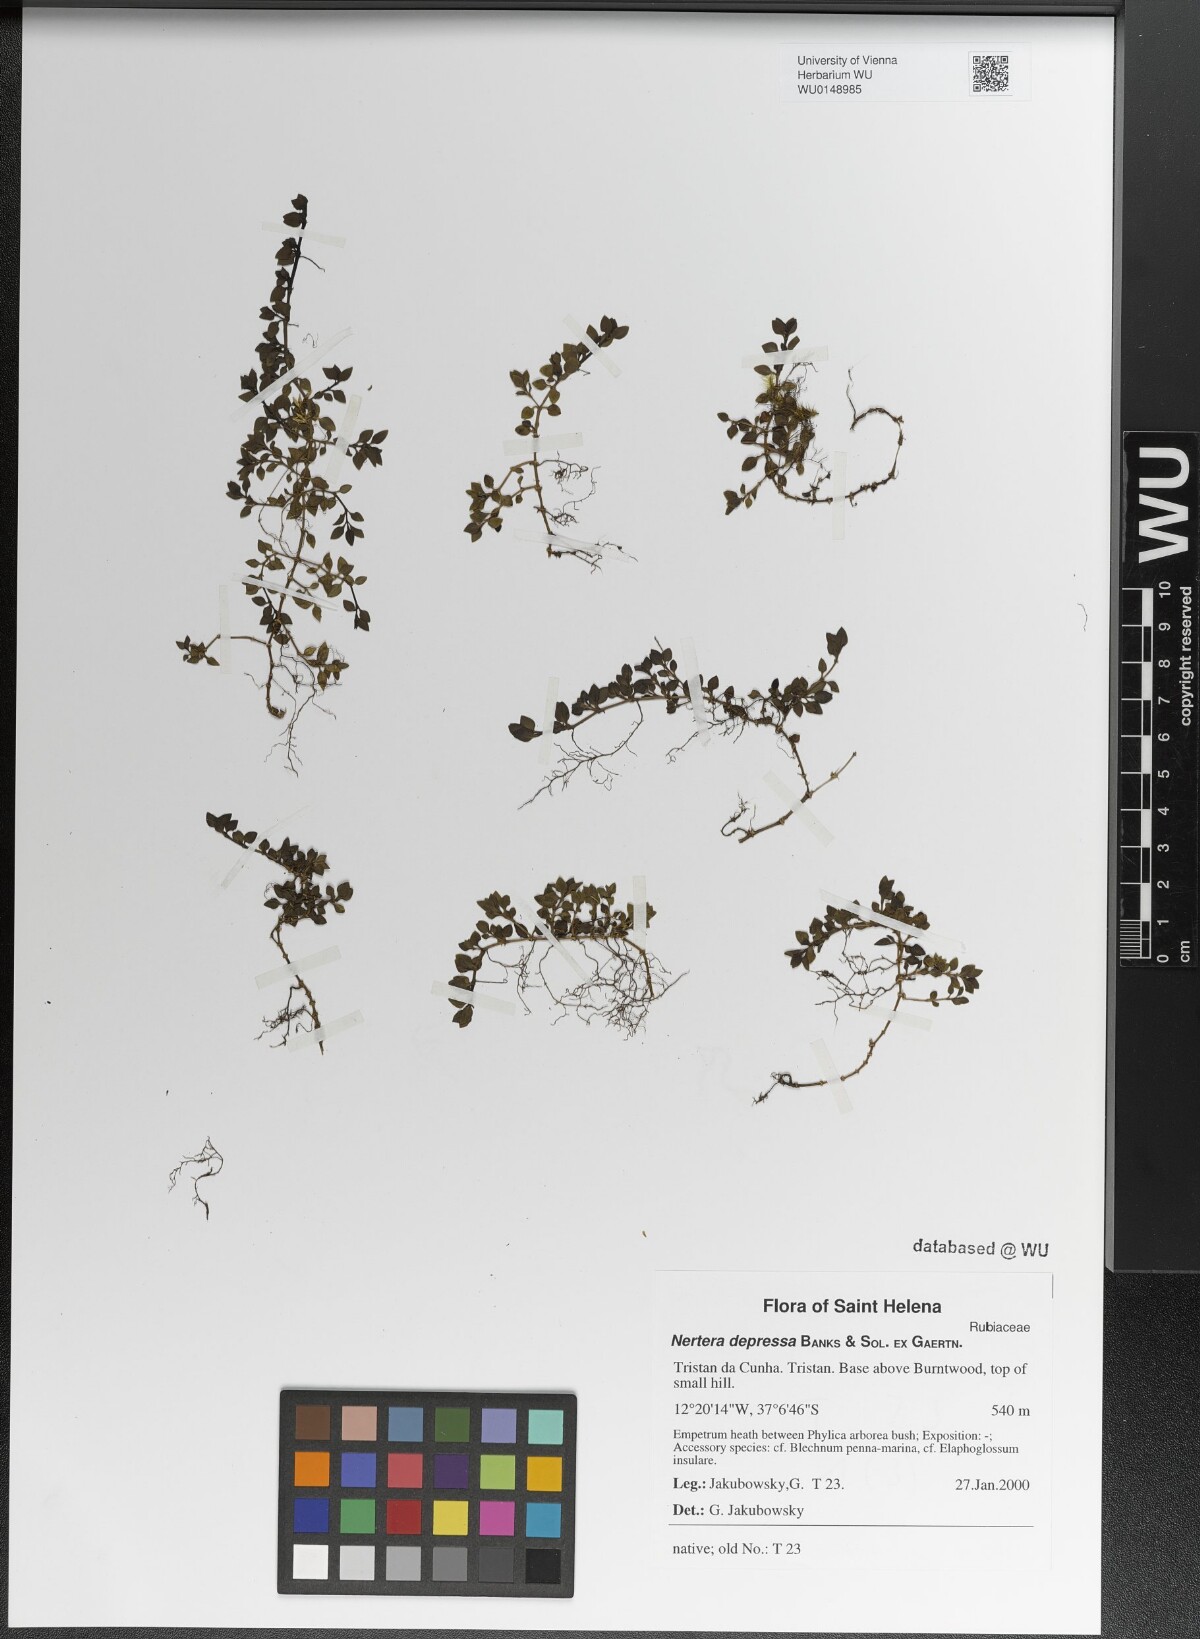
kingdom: Plantae
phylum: Tracheophyta
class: Magnoliopsida
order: Gentianales
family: Rubiaceae
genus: Nertera
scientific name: Nertera granadensis
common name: Beadplant
